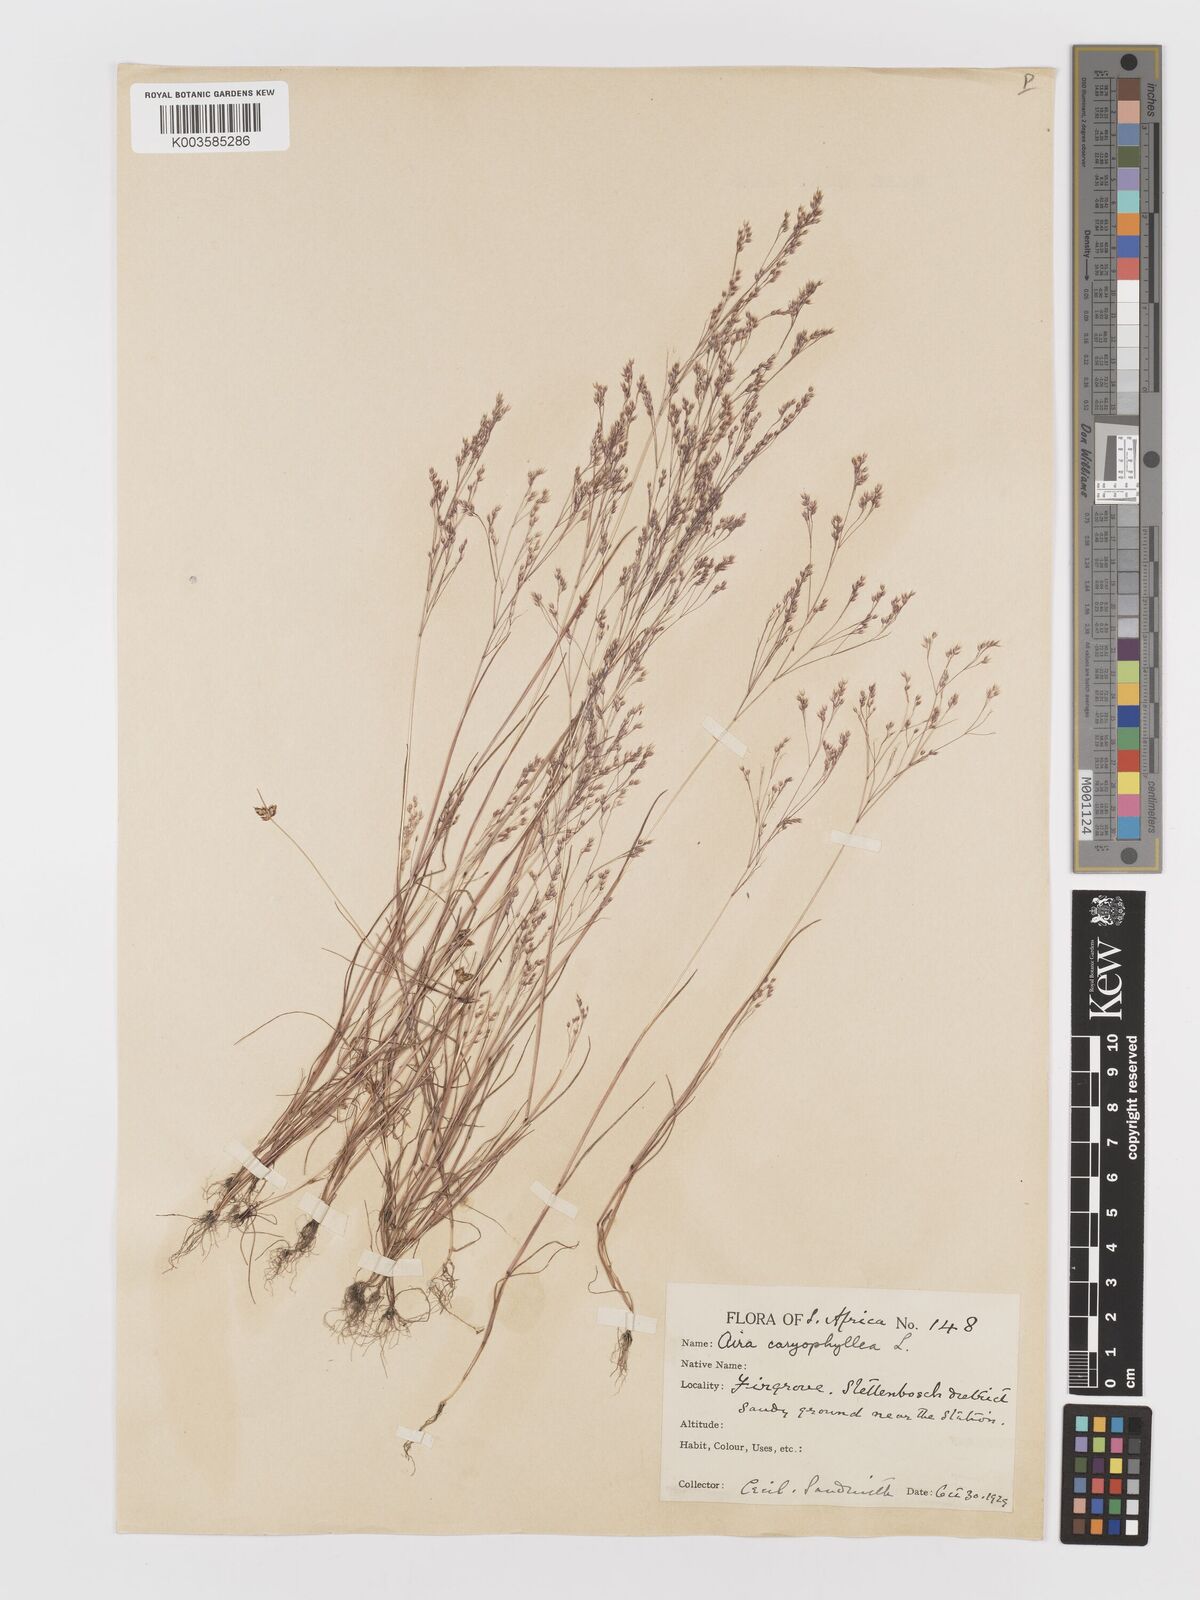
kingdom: Plantae
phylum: Tracheophyta
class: Liliopsida
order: Poales
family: Poaceae
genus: Aira
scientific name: Aira cupaniana
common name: Silver hairgrass
